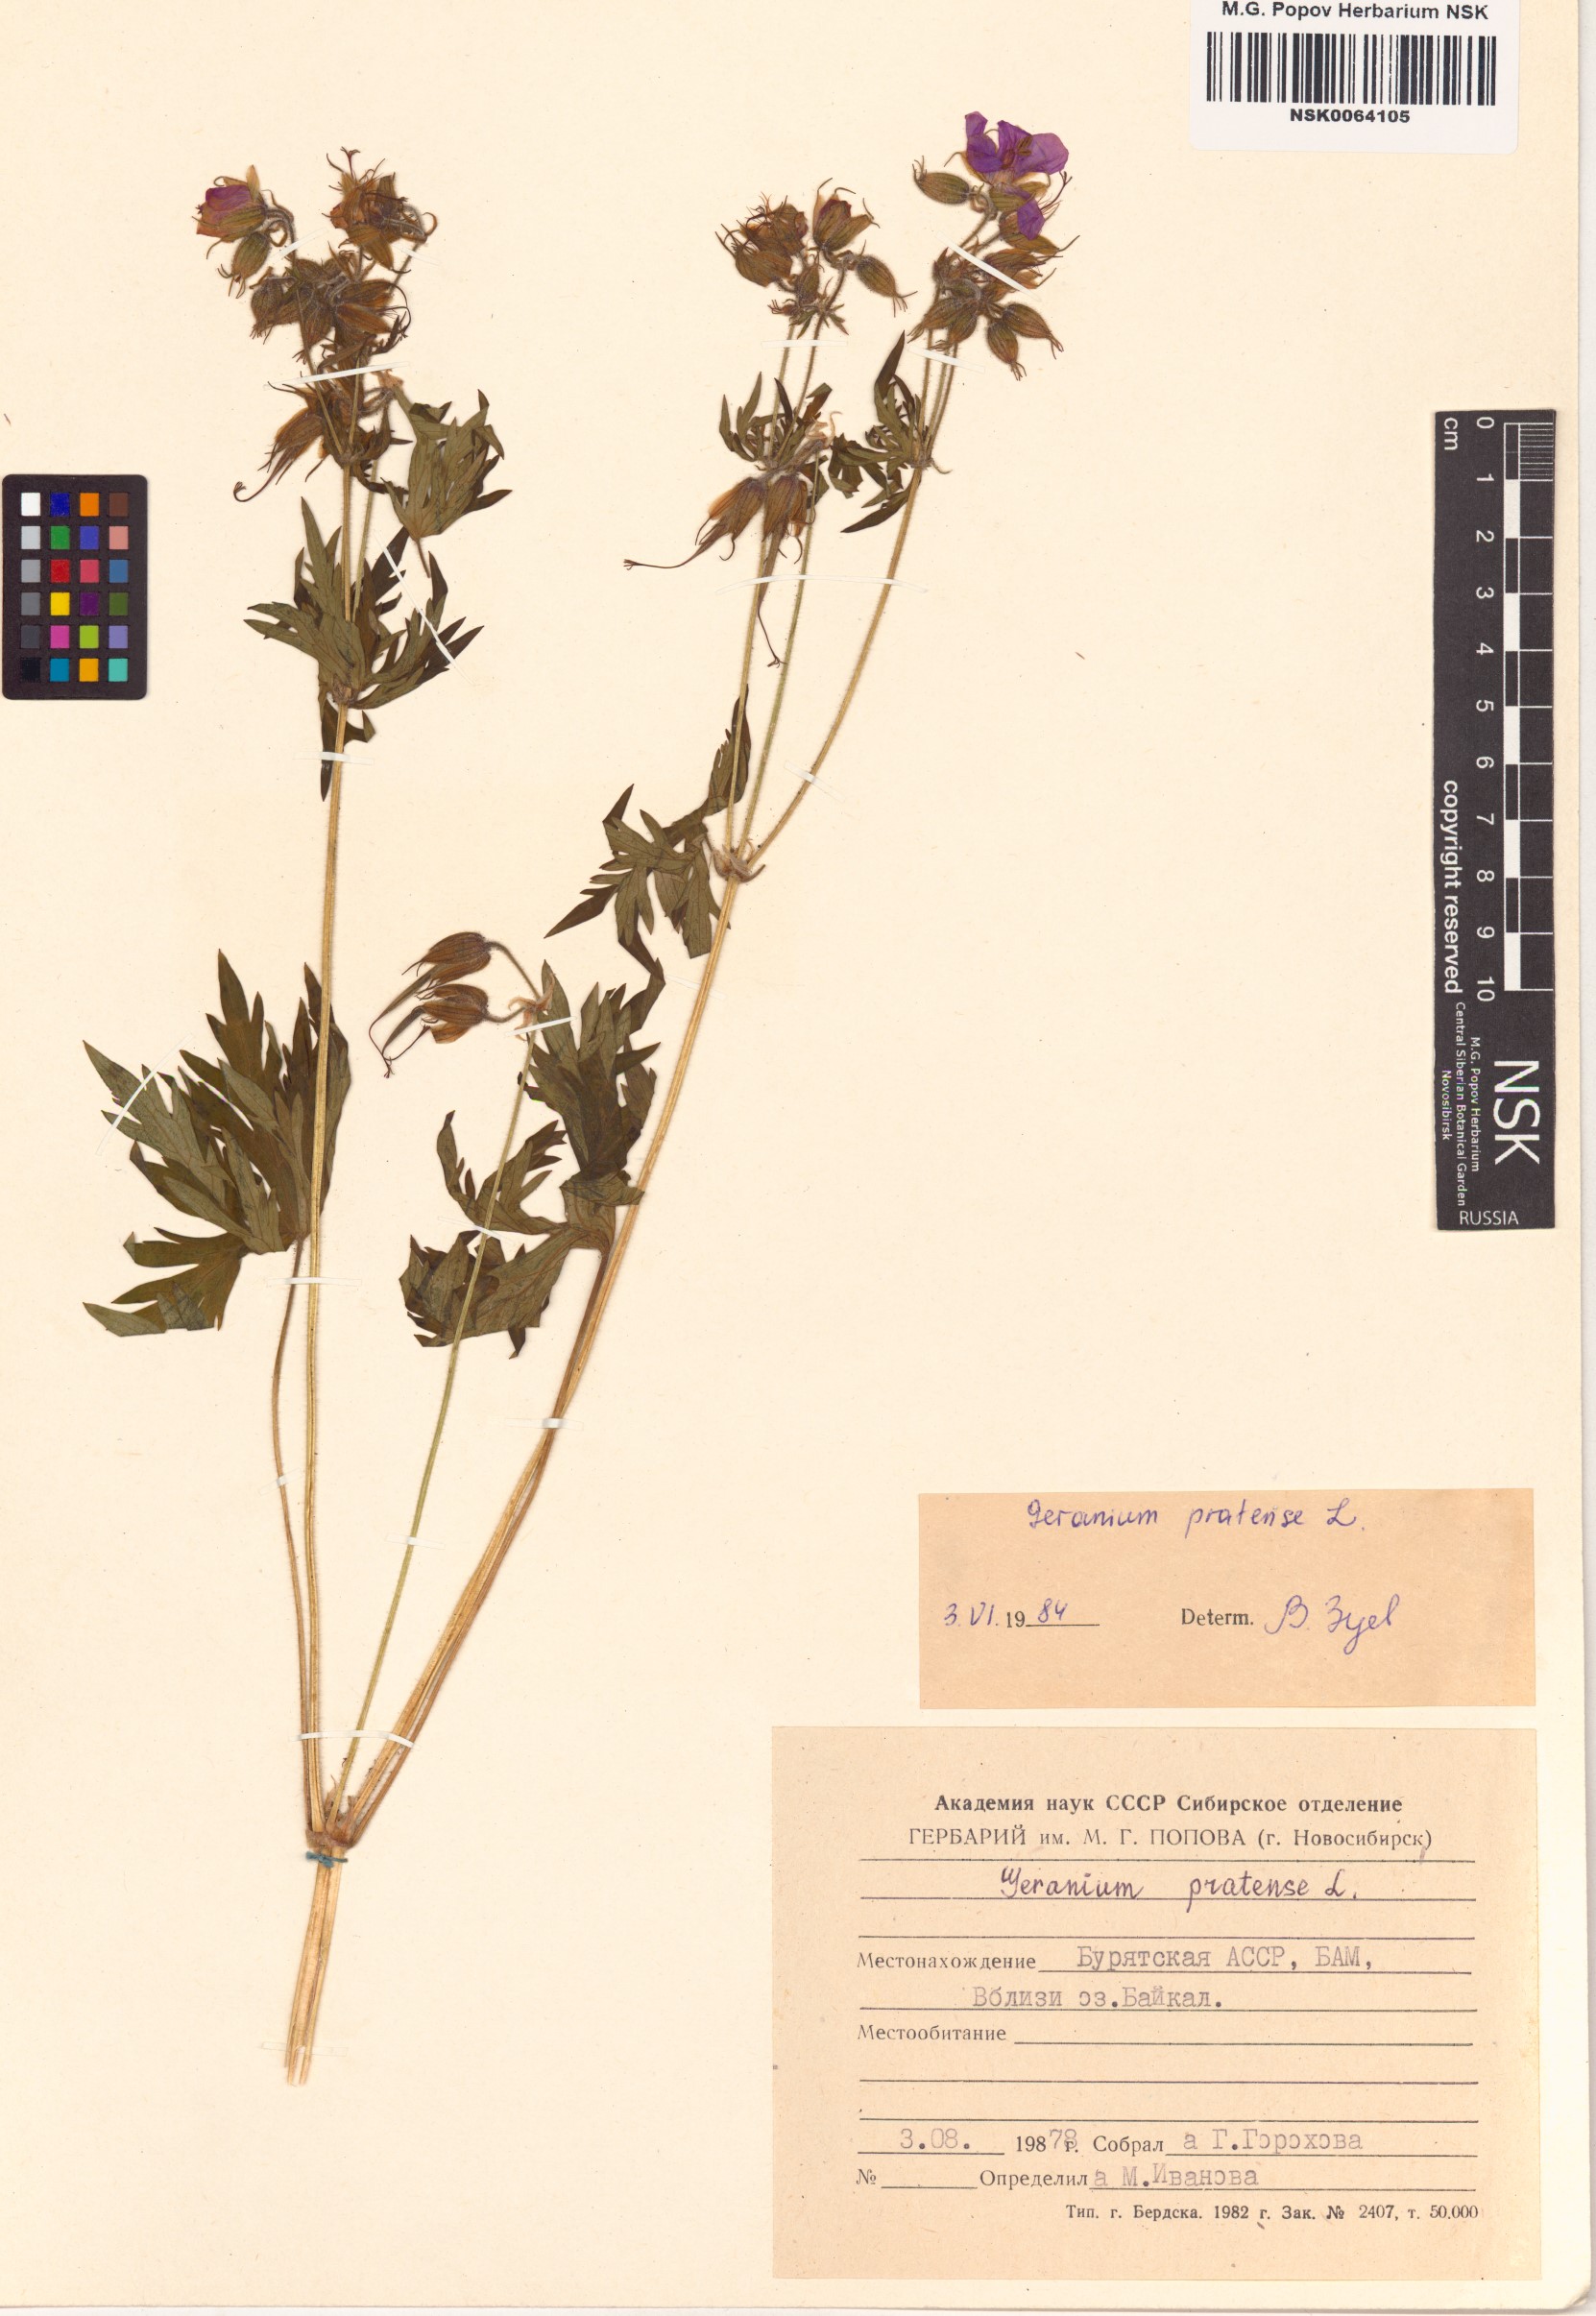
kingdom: Plantae
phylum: Tracheophyta
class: Magnoliopsida
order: Geraniales
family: Geraniaceae
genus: Geranium
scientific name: Geranium pratense
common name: Meadow crane's-bill
